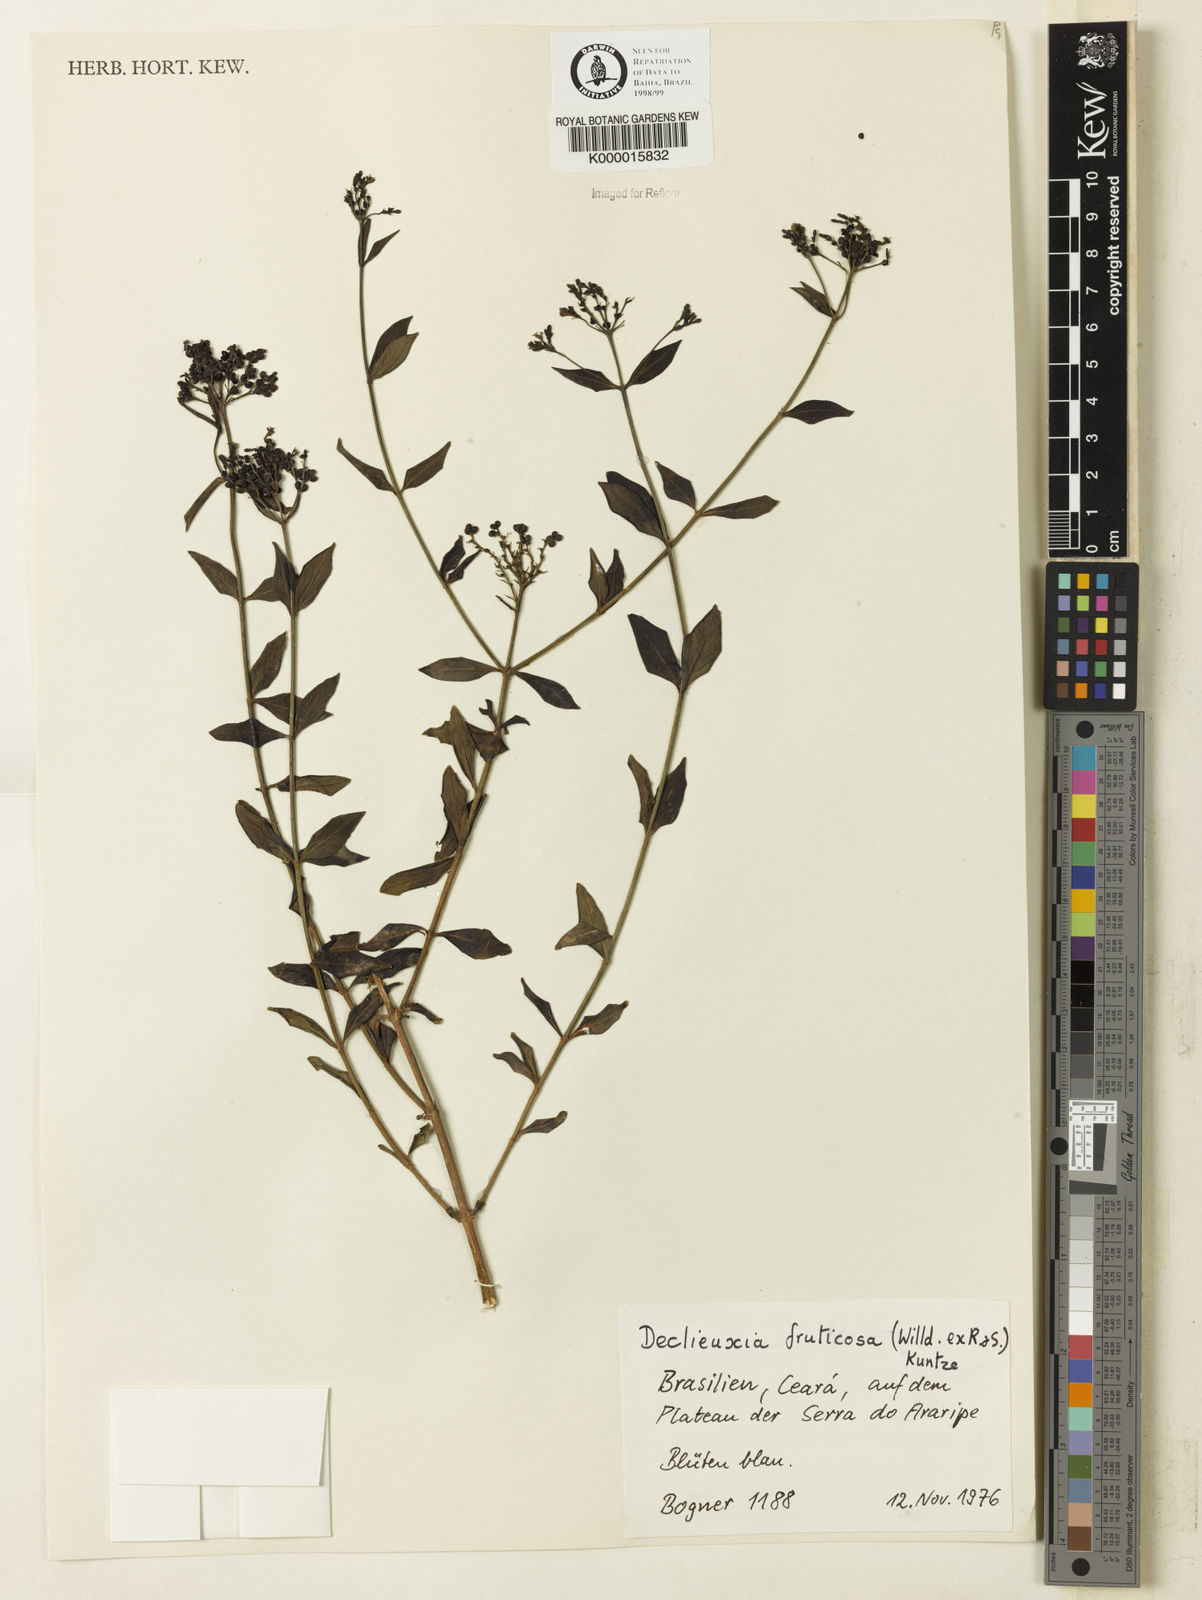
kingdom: Plantae
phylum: Tracheophyta
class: Magnoliopsida
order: Gentianales
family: Rubiaceae
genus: Declieuxia
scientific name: Declieuxia fruticosa
